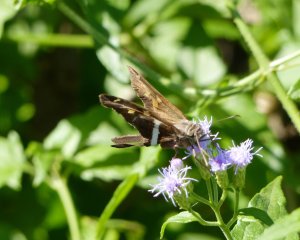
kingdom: Animalia
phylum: Arthropoda
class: Insecta
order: Lepidoptera
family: Hesperiidae
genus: Chioides
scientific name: Chioides catillus
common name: White-striped Longtail
